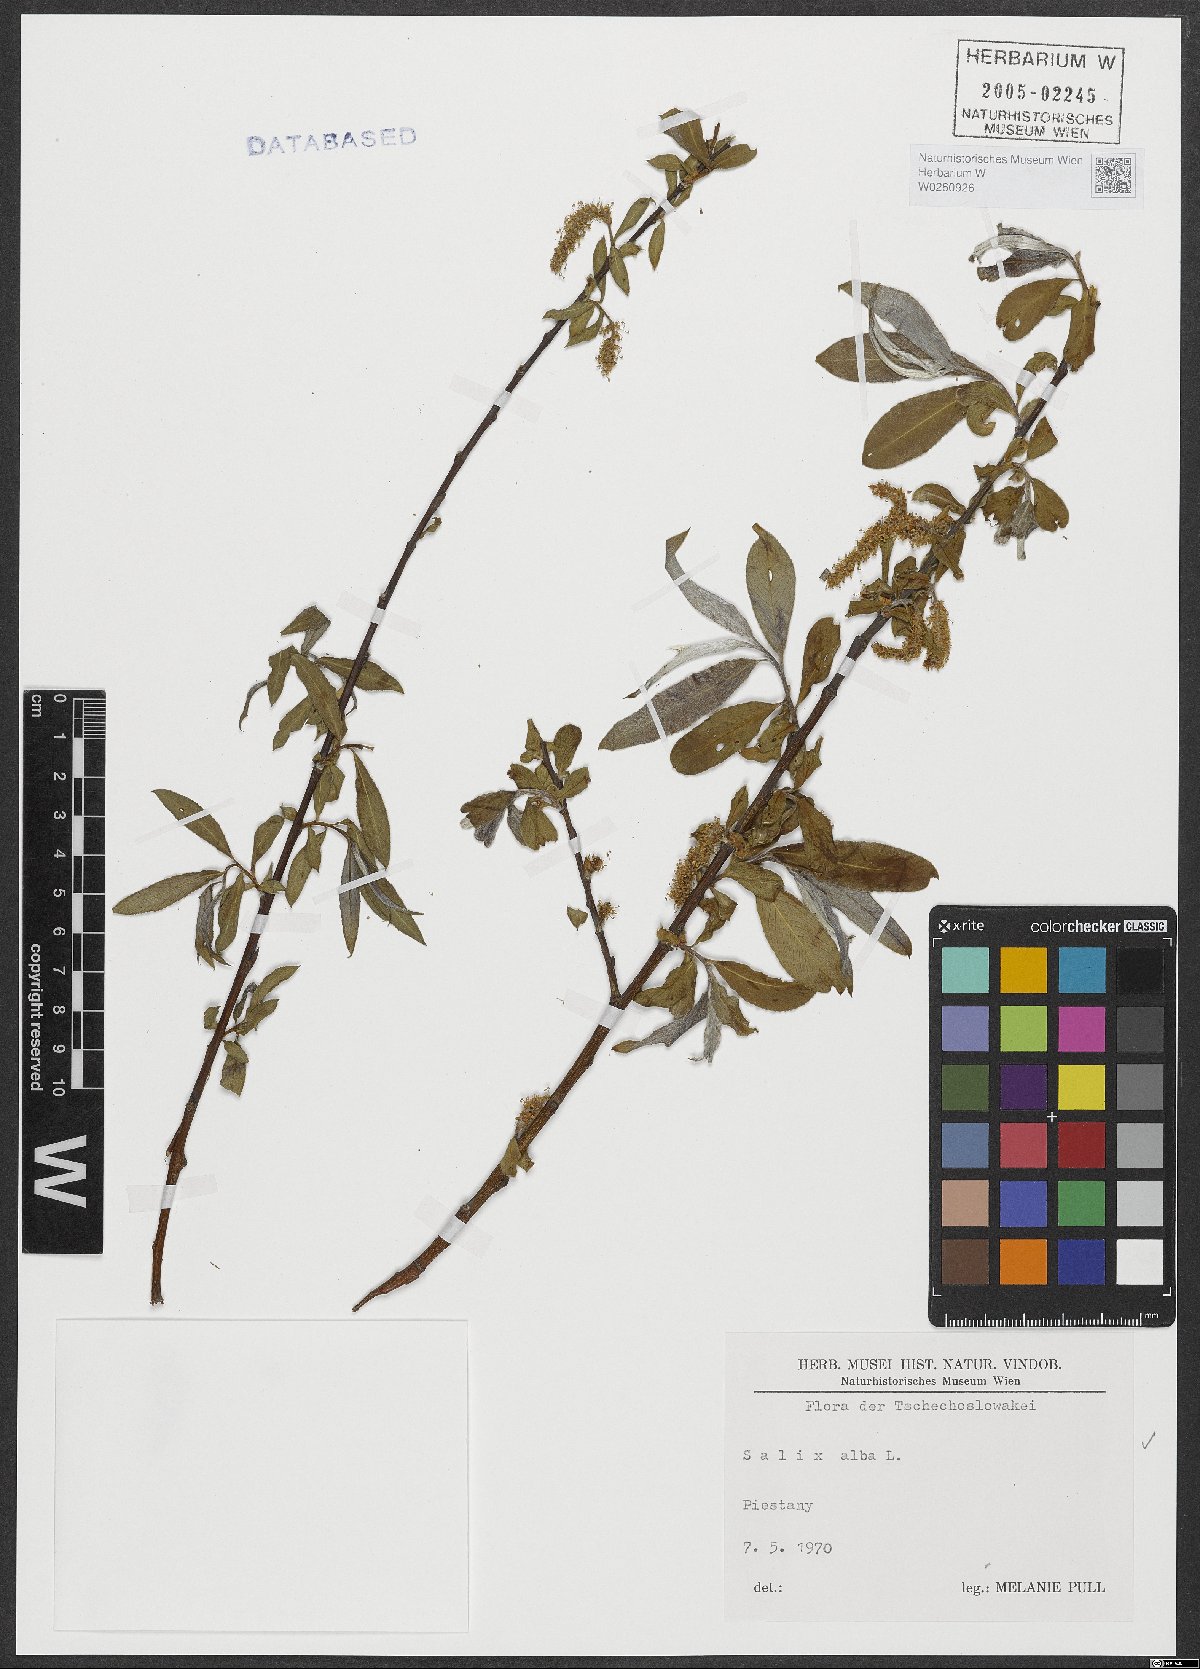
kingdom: Plantae
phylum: Tracheophyta
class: Magnoliopsida
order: Malpighiales
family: Salicaceae
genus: Salix
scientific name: Salix alba
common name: White willow
